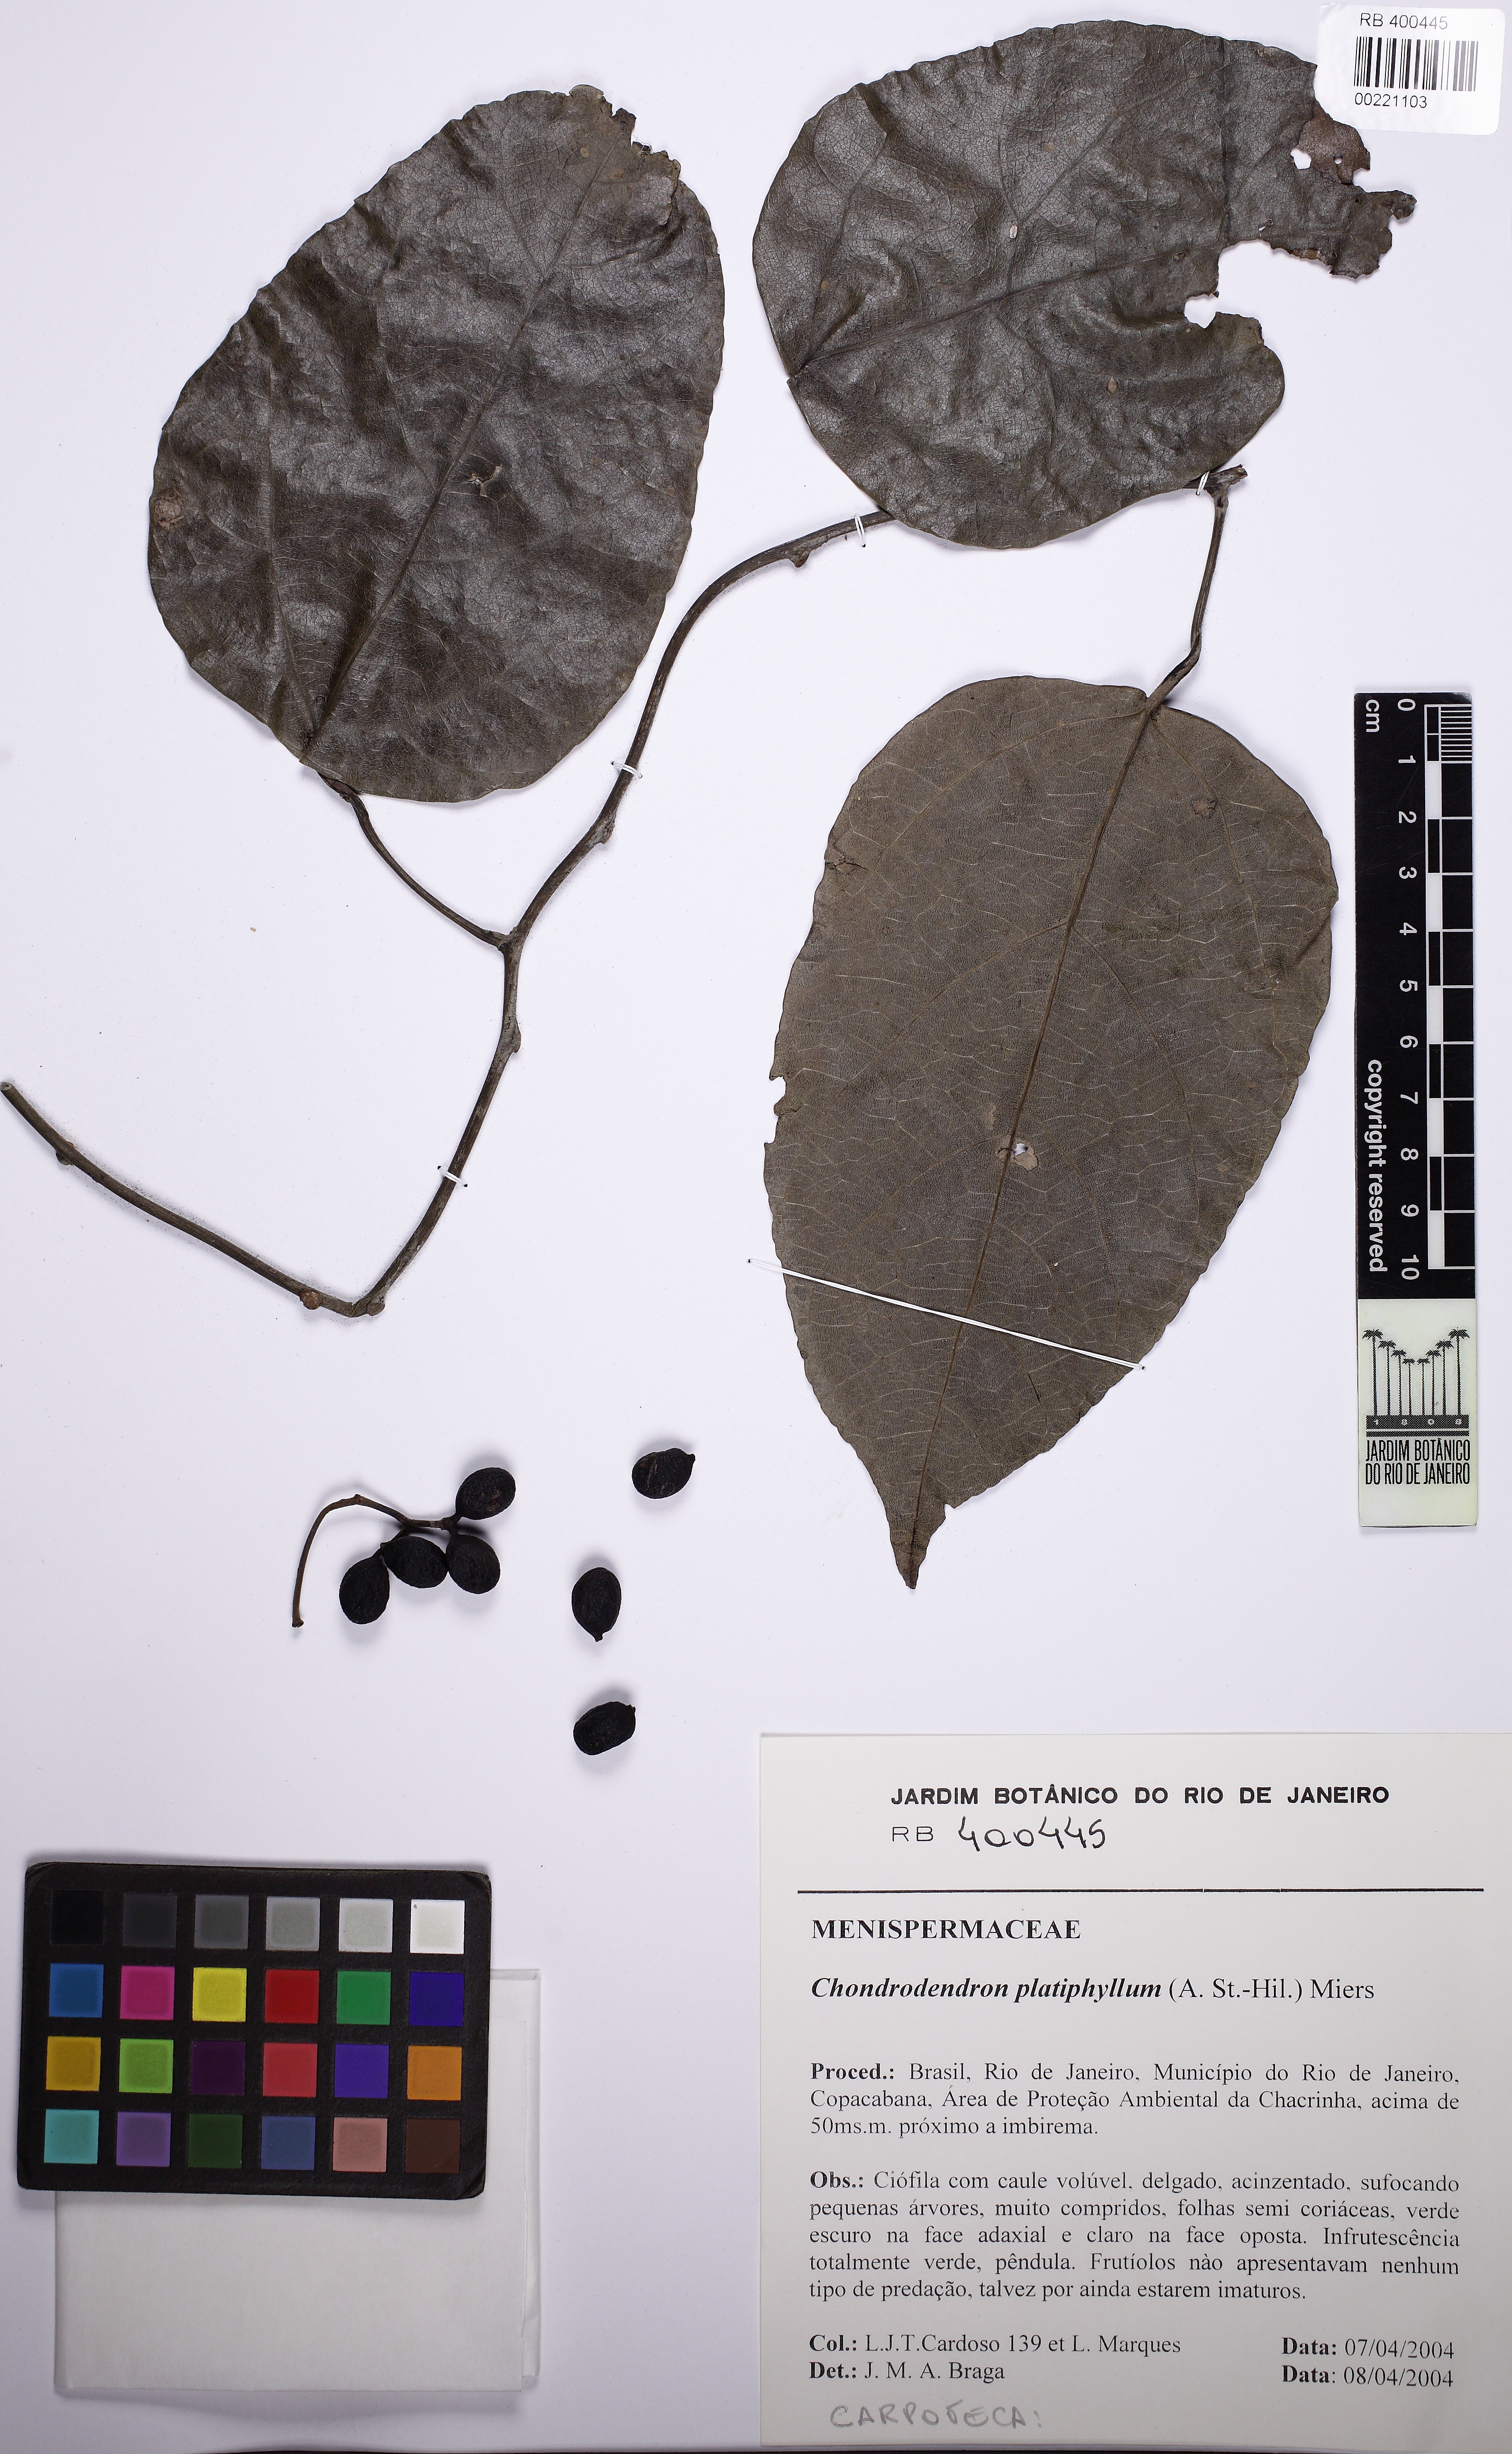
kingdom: Plantae
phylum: Tracheophyta
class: Magnoliopsida
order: Ranunculales
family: Menispermaceae
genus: Chondrodendron
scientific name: Chondrodendron platyphyllum
